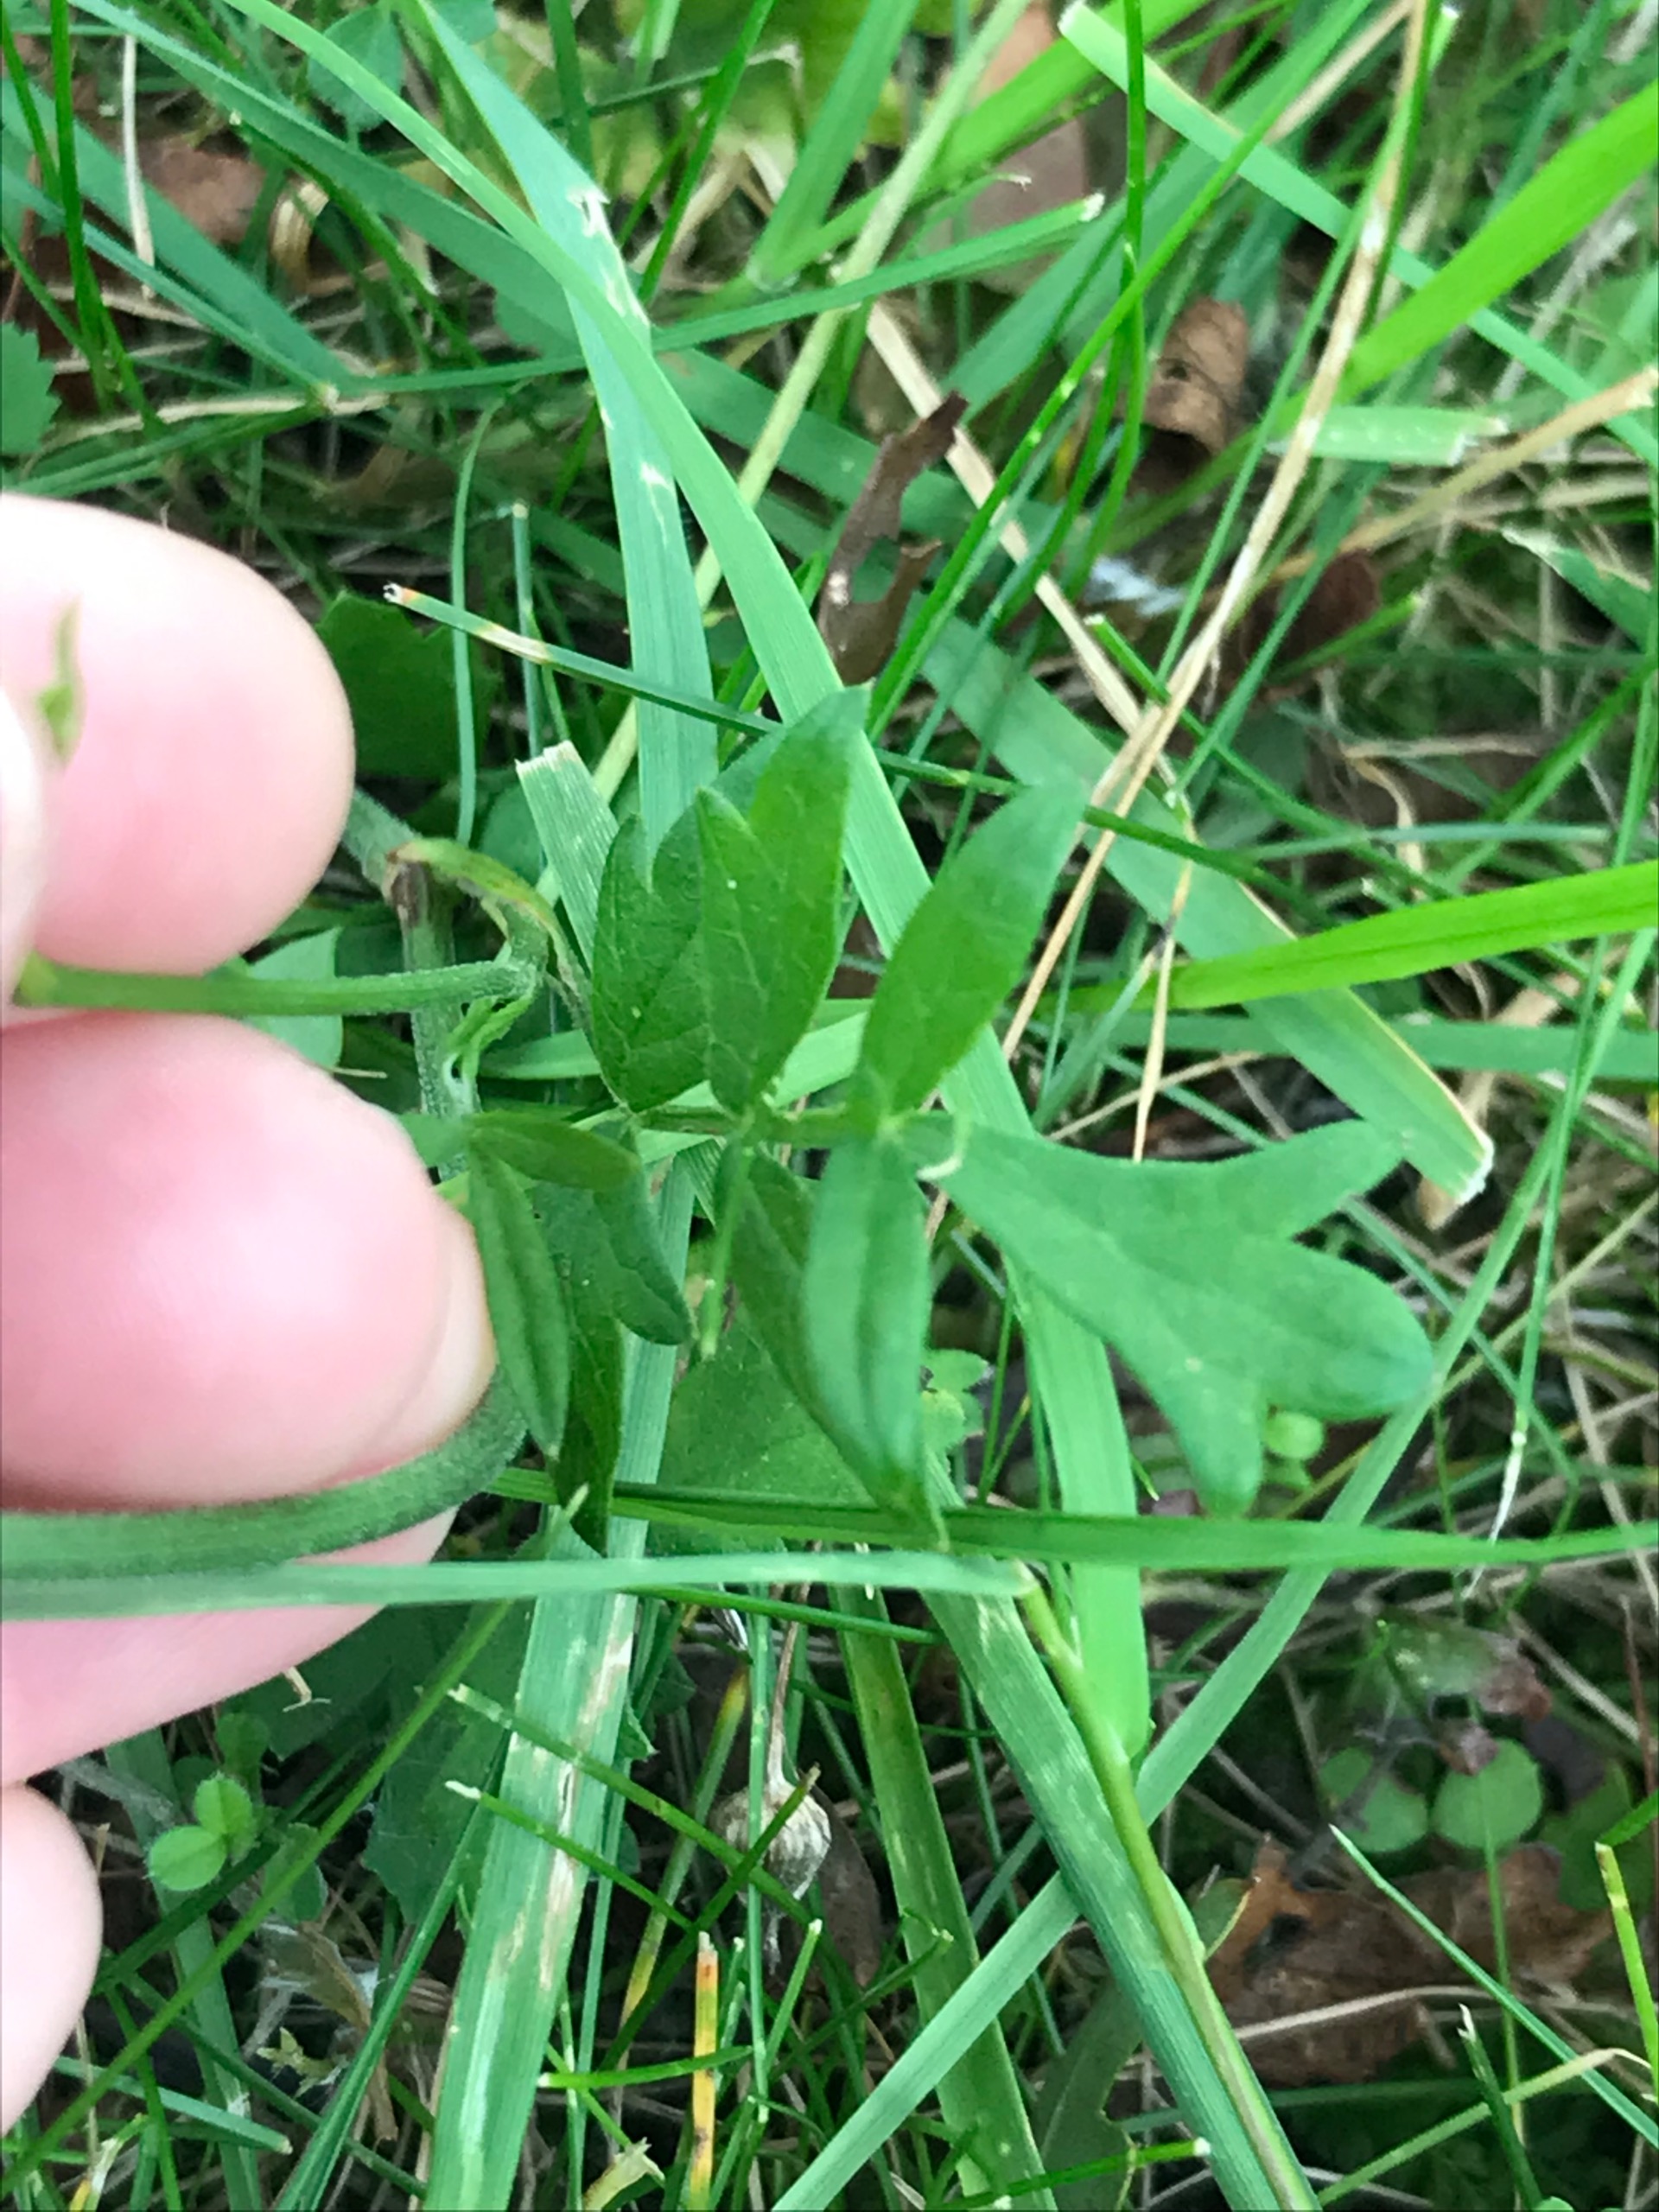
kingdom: Plantae
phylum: Tracheophyta
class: Magnoliopsida
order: Apiales
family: Apiaceae
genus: Pimpinella
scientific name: Pimpinella saxifraga
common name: Almindelig pimpinelle
